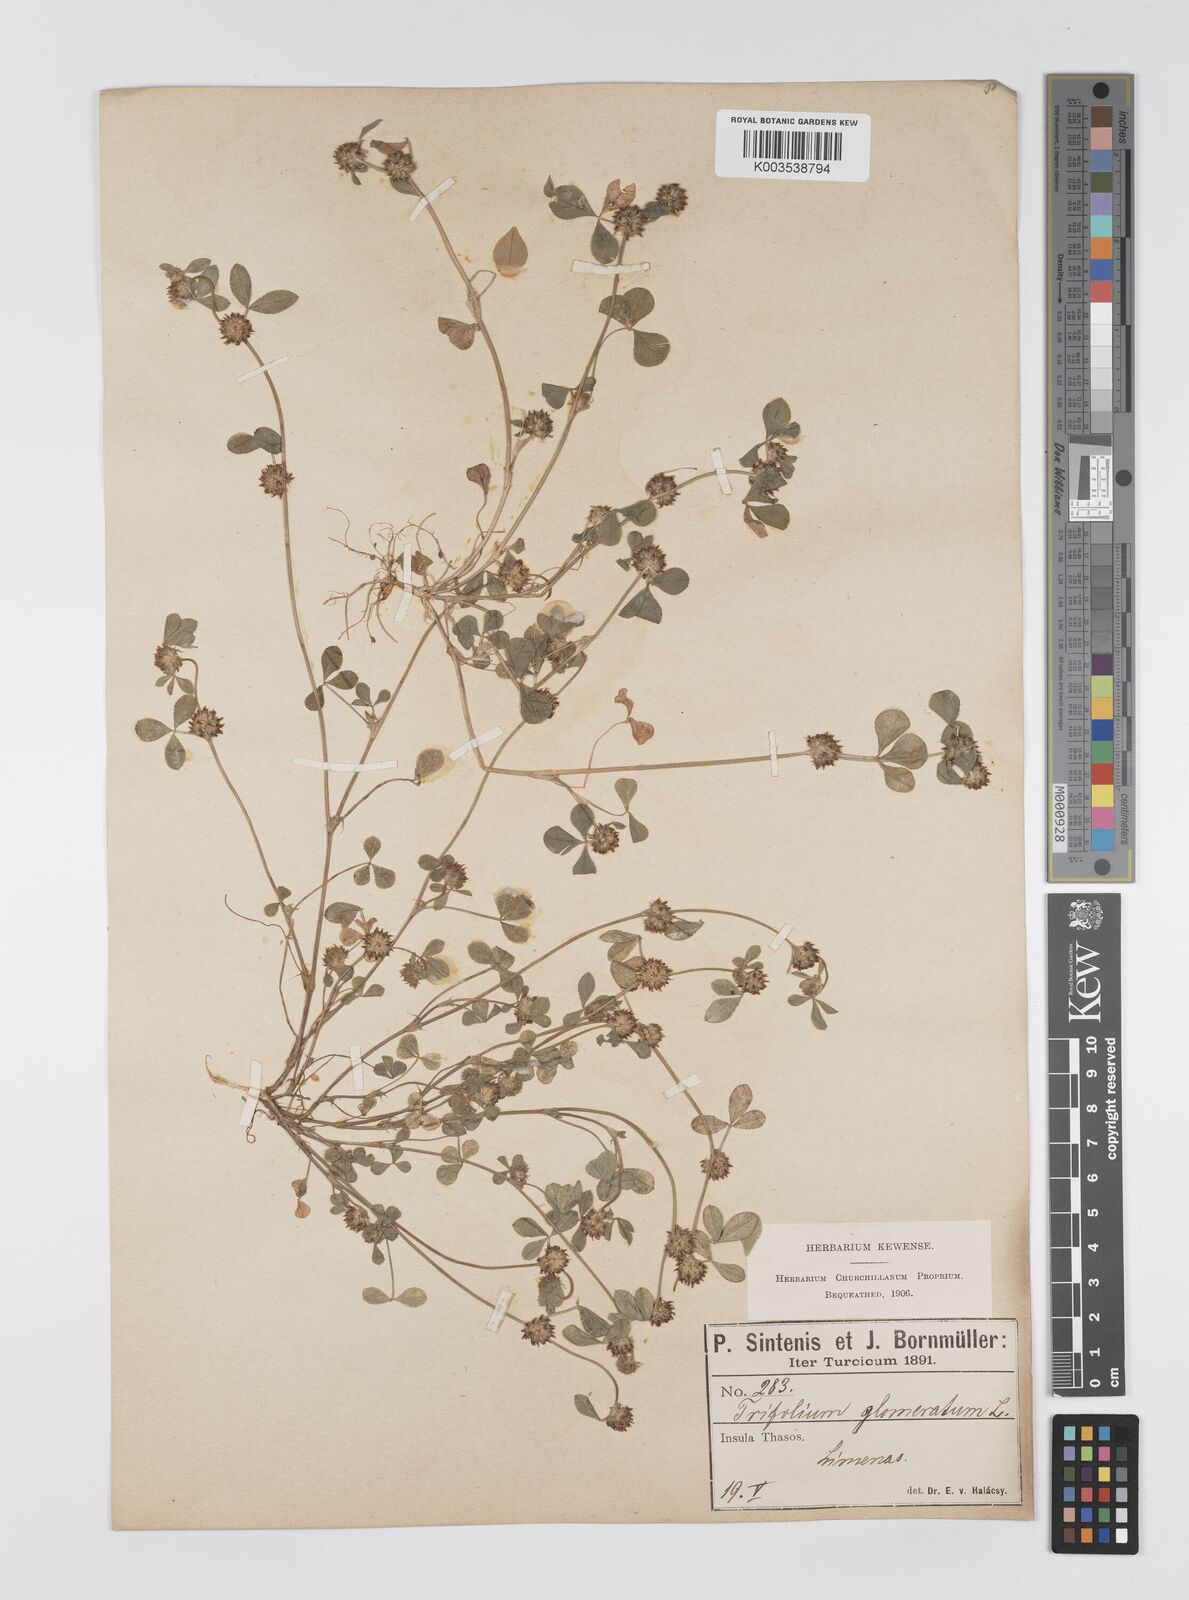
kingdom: Plantae
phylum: Tracheophyta
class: Magnoliopsida
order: Fabales
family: Fabaceae
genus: Trifolium
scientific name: Trifolium glomeratum
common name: Clustered clover
